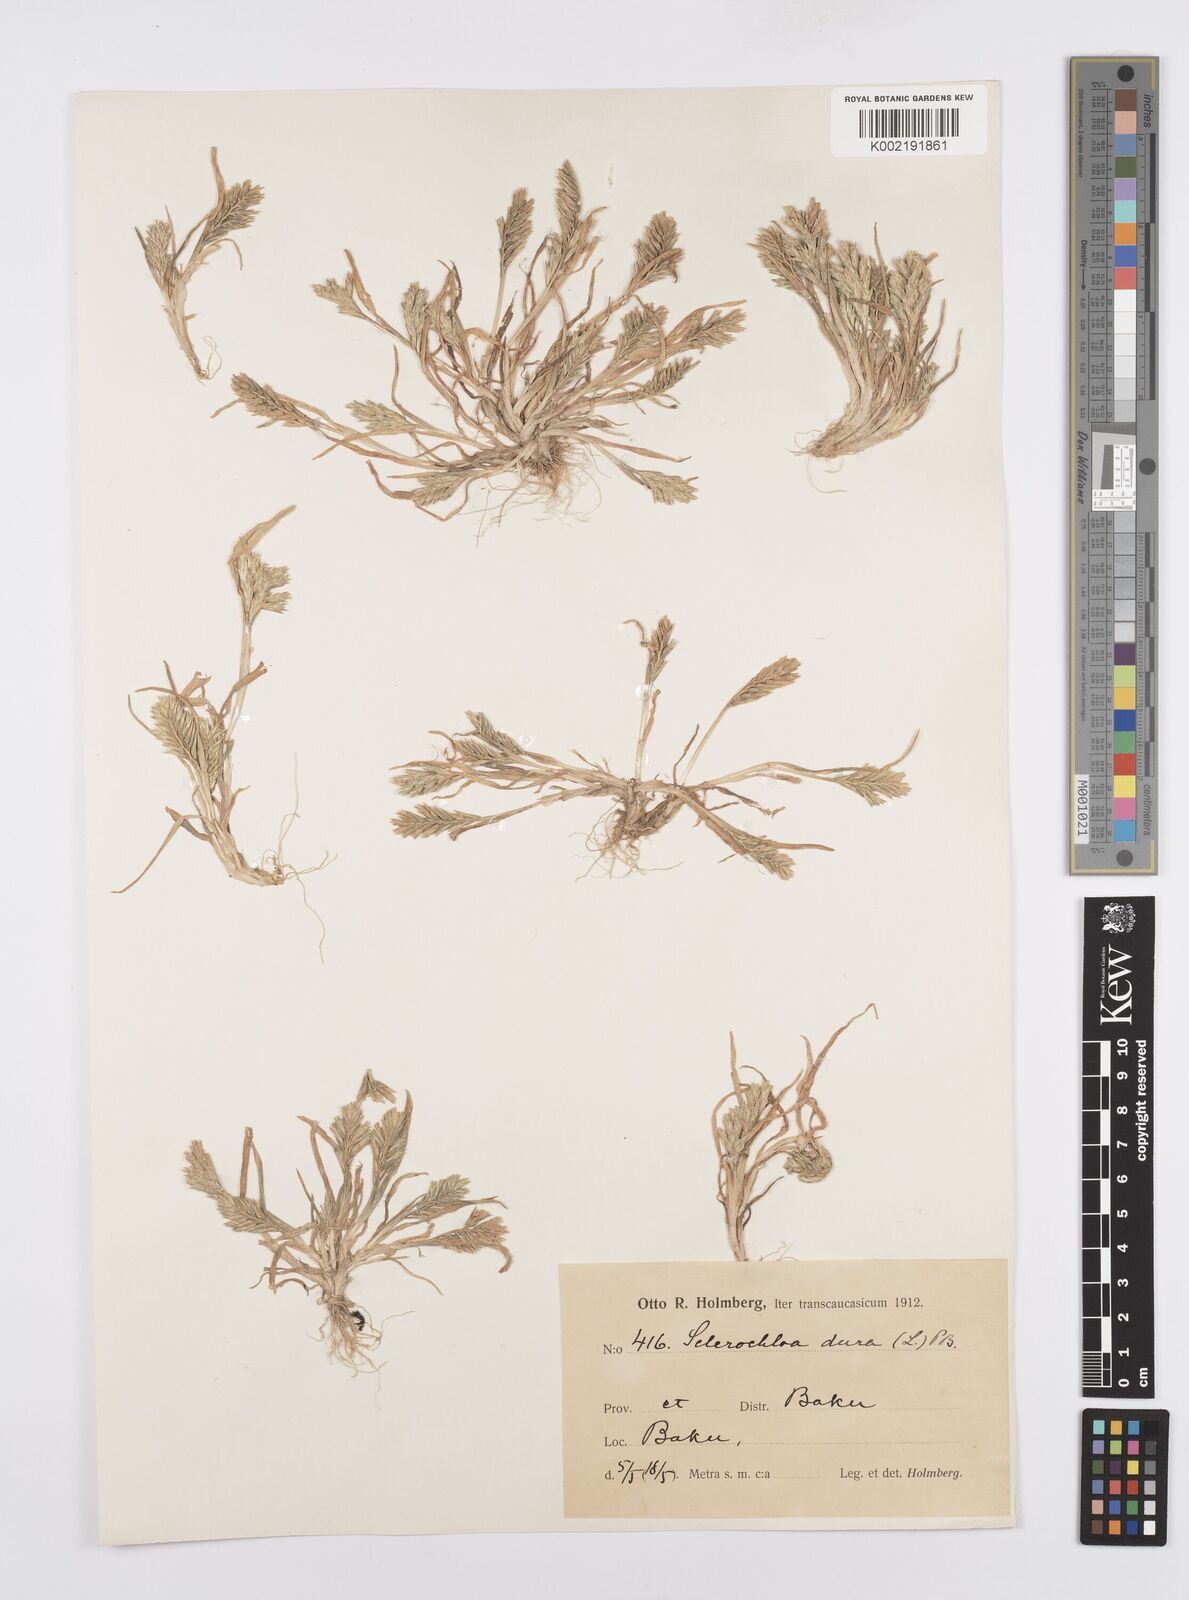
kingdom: Plantae
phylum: Tracheophyta
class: Liliopsida
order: Poales
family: Poaceae
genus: Sclerochloa
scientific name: Sclerochloa dura
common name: Common hardgrass
